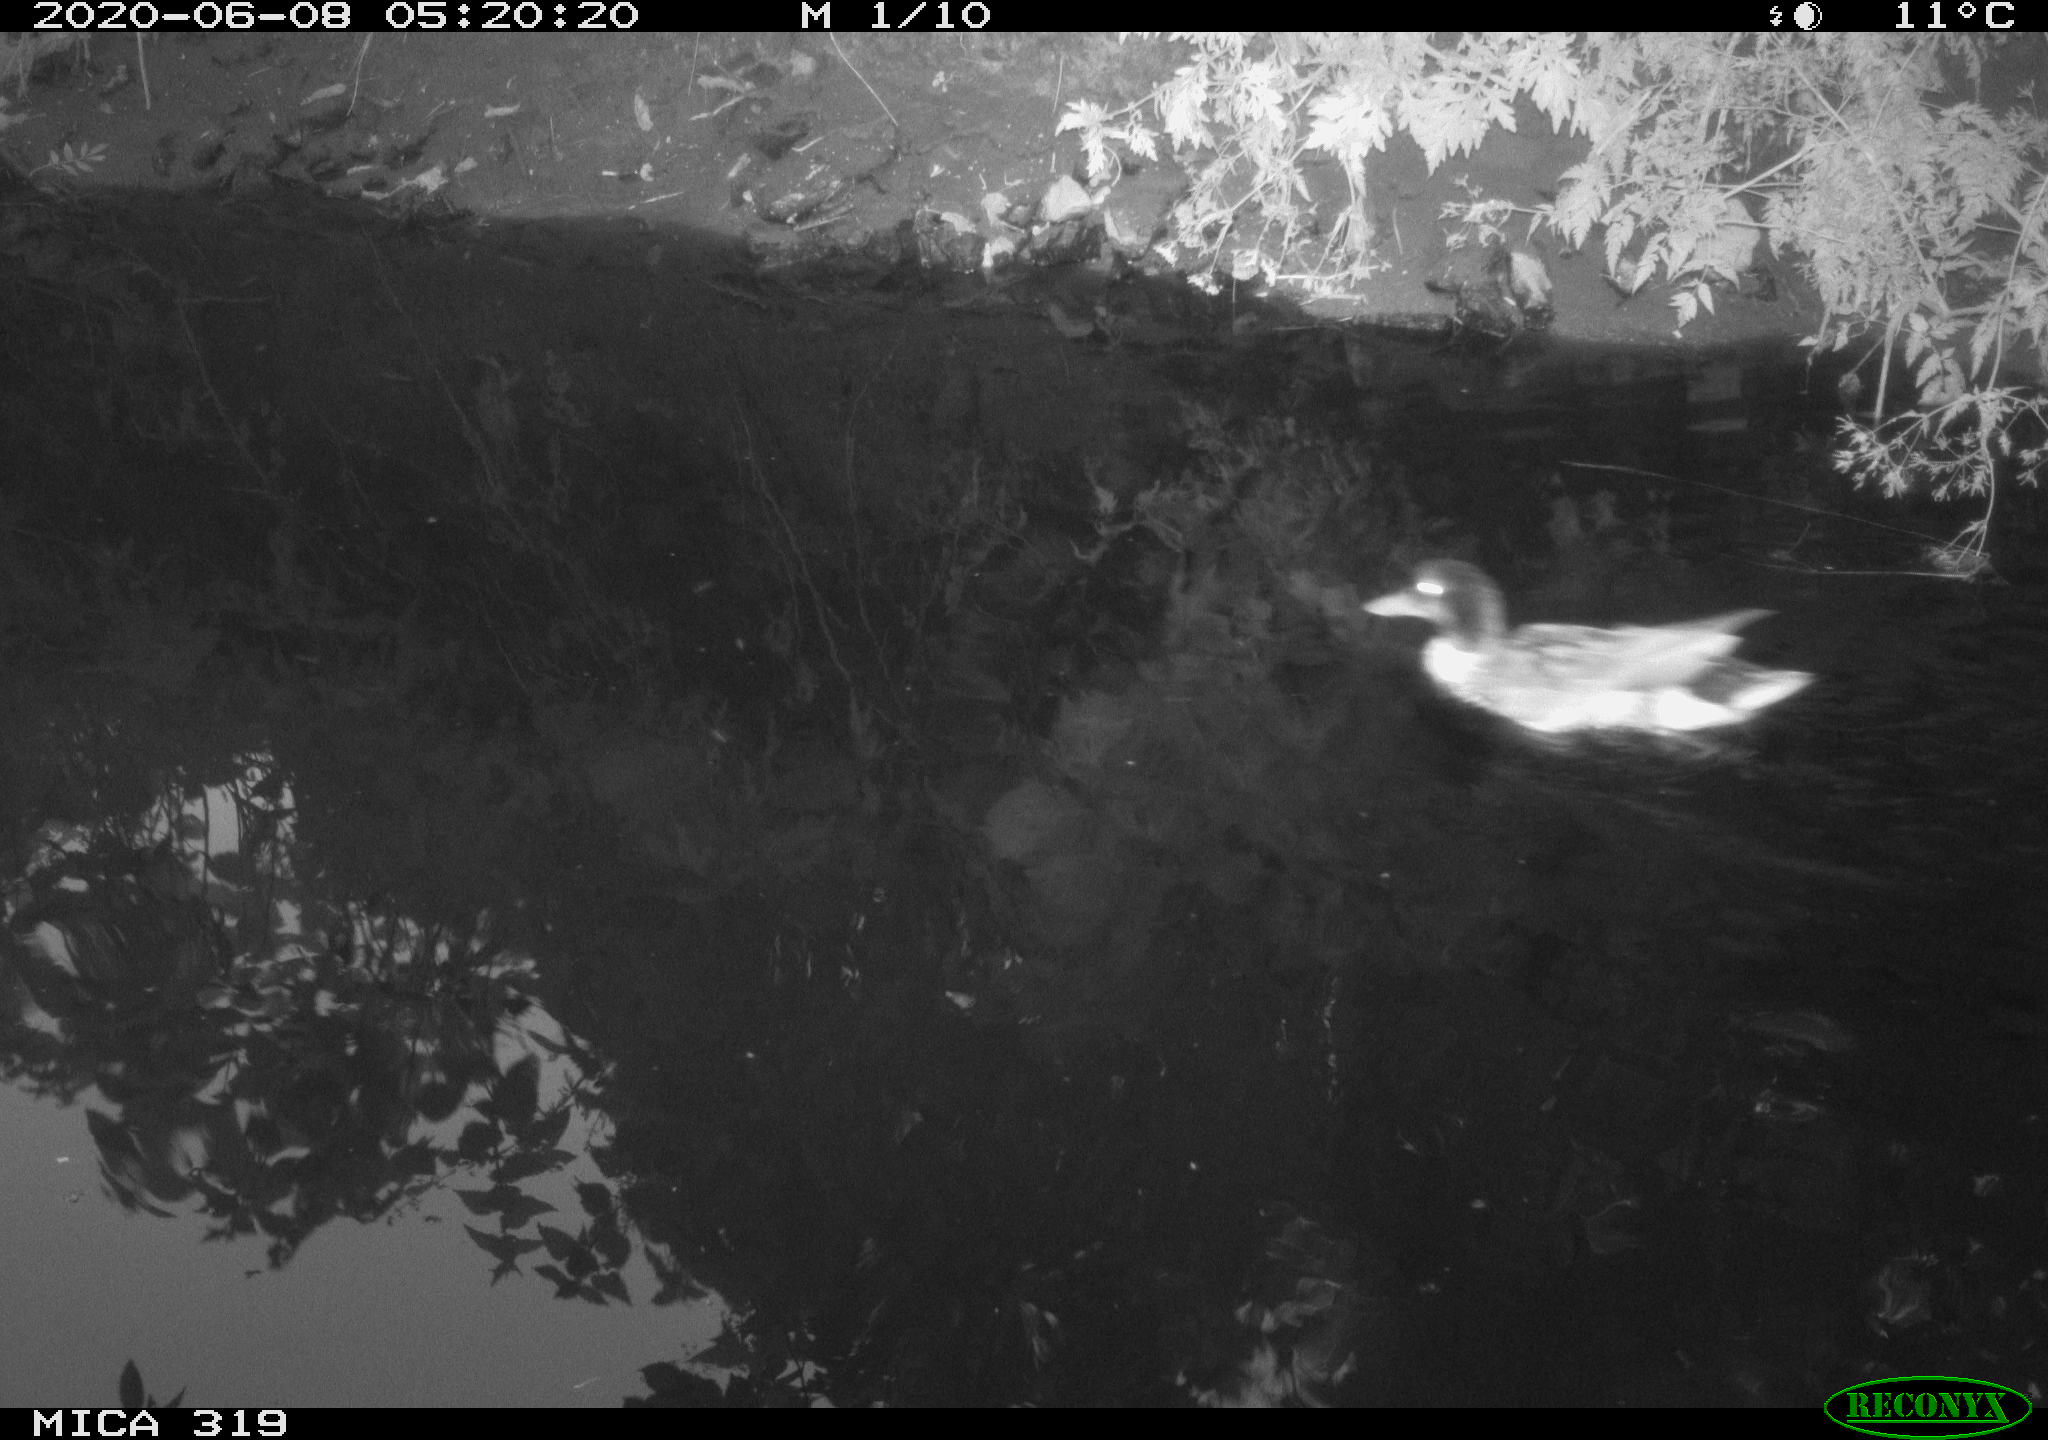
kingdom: Animalia
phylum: Chordata
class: Aves
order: Anseriformes
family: Anatidae
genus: Anas
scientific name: Anas platyrhynchos
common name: Mallard
